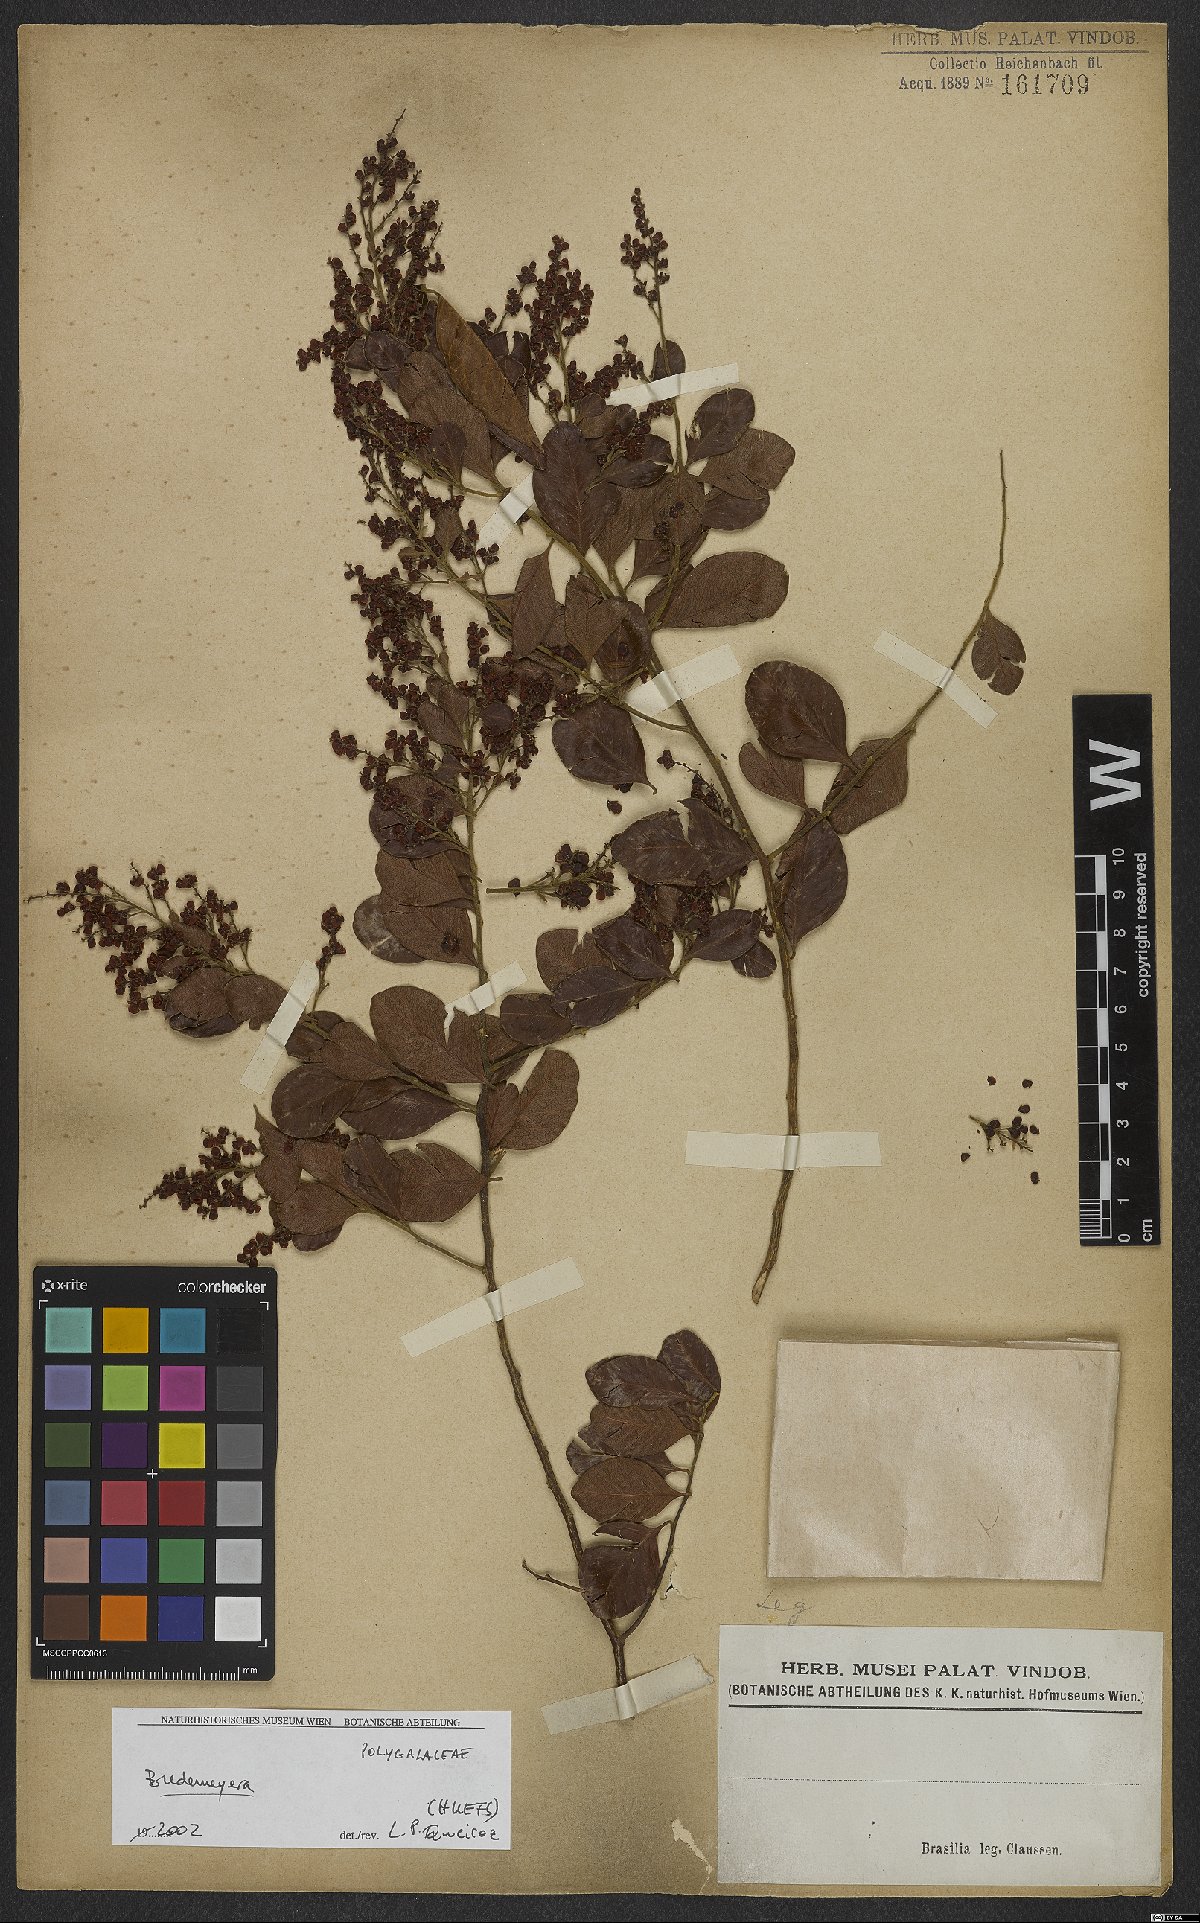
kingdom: Plantae
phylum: Tracheophyta
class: Magnoliopsida
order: Fabales
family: Polygalaceae
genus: Bredemeyera
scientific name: Bredemeyera
